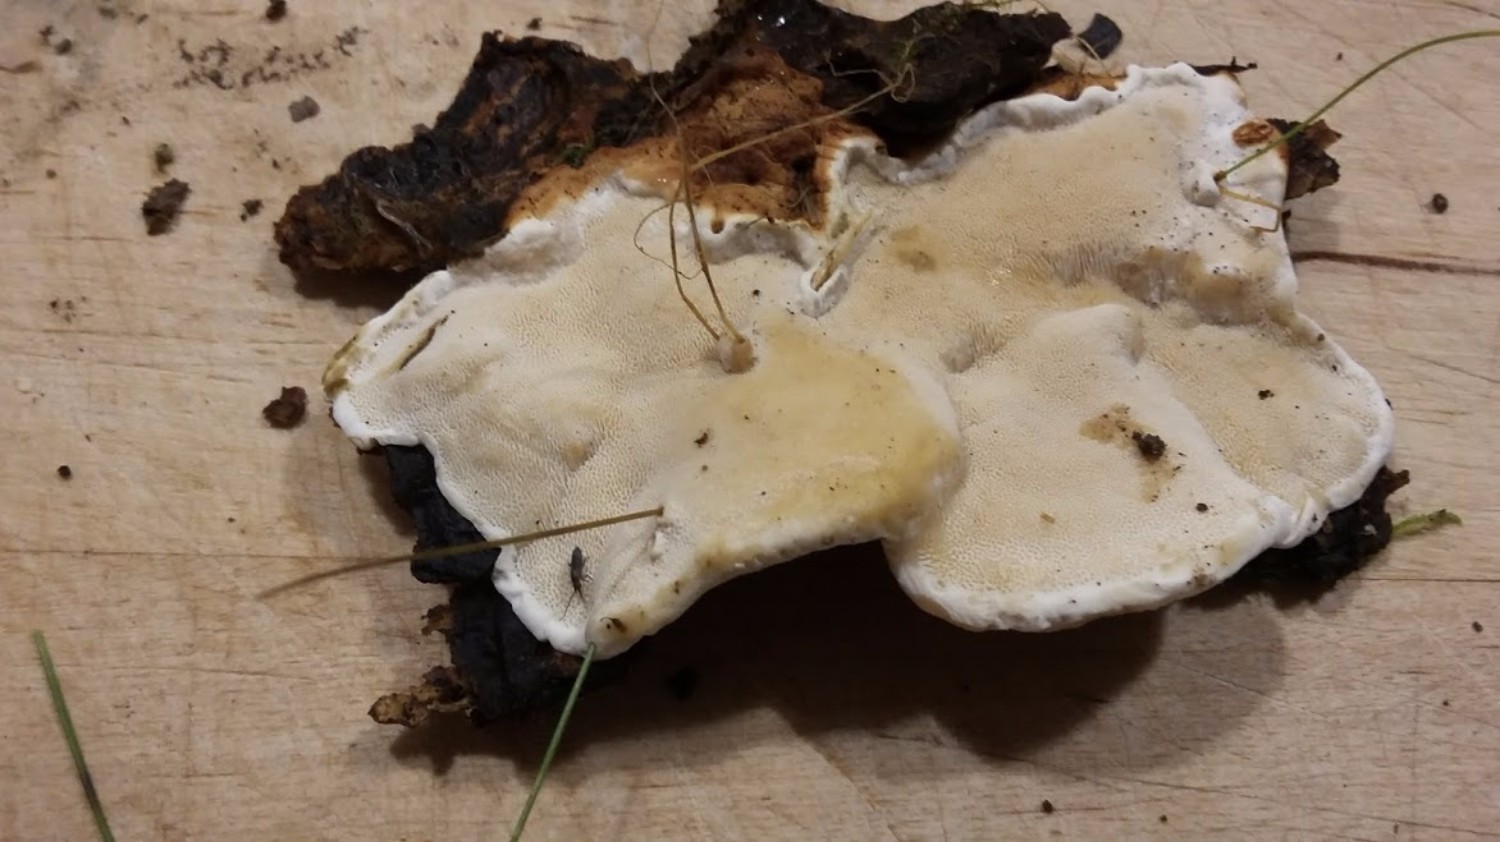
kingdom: Fungi
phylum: Basidiomycota
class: Agaricomycetes
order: Russulales
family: Bondarzewiaceae
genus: Heterobasidion
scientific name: Heterobasidion annosum
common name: almindelig rodfordærver
